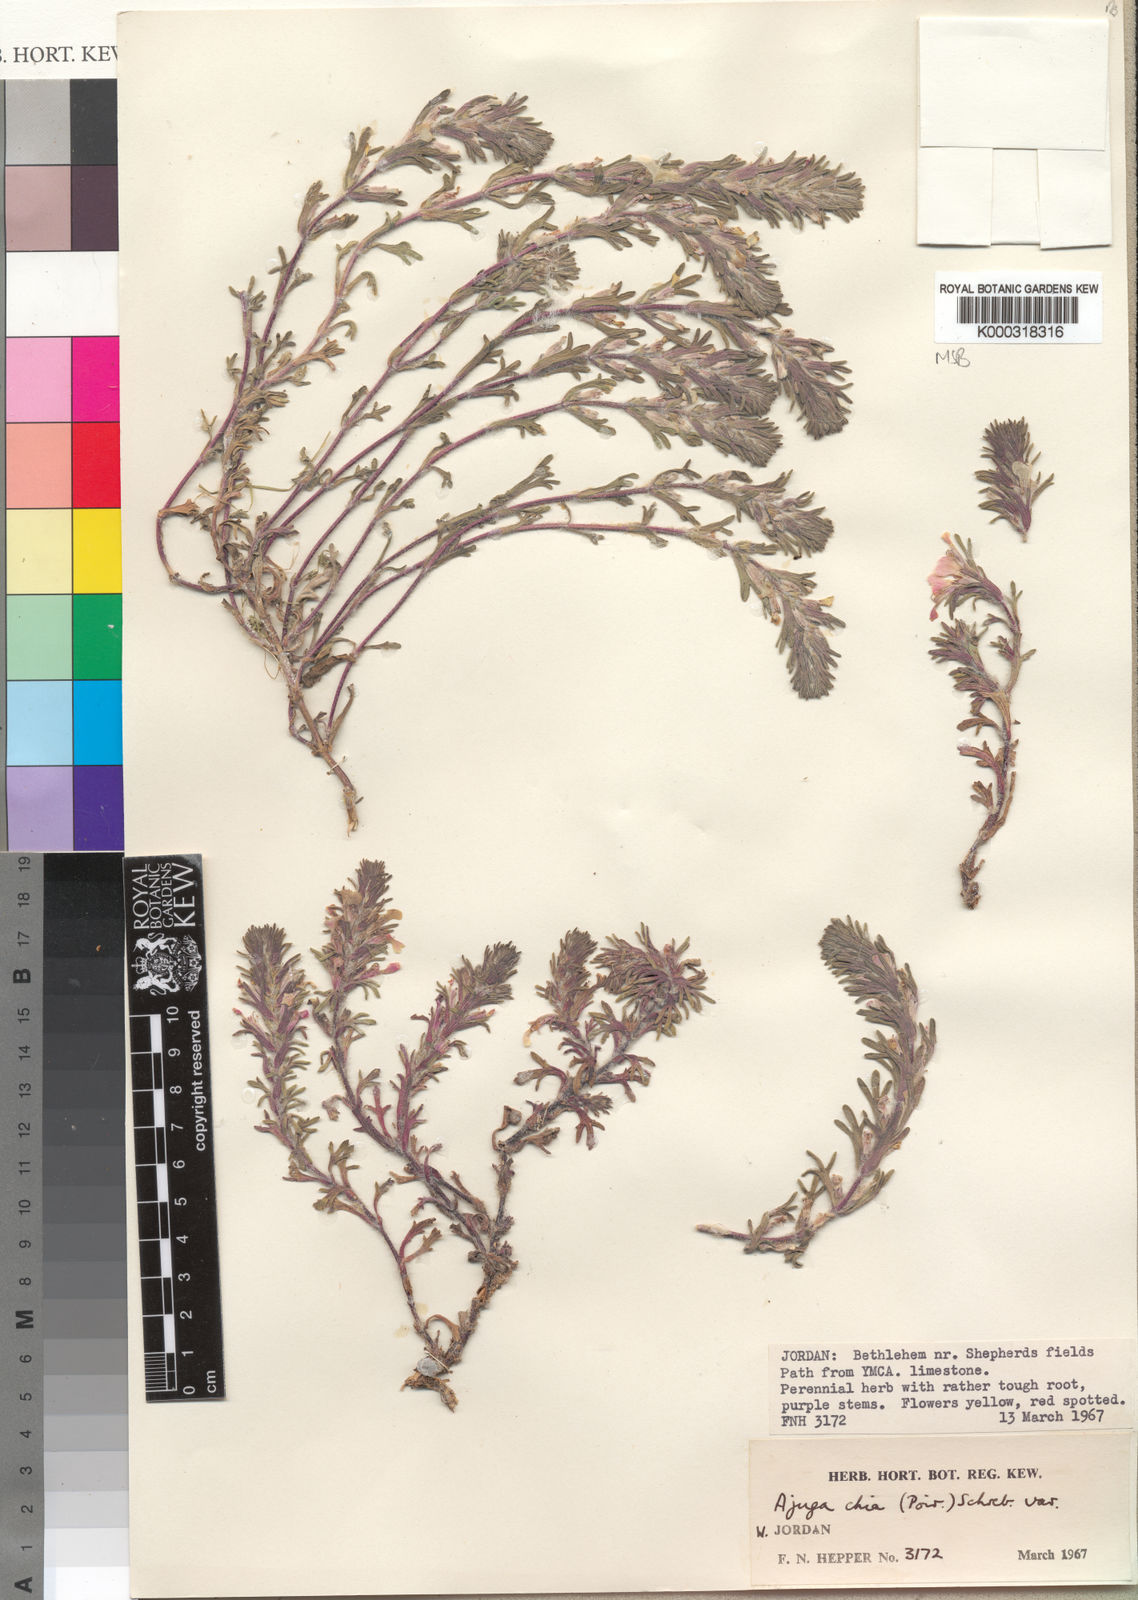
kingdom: Plantae
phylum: Tracheophyta
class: Magnoliopsida
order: Lamiales
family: Lamiaceae
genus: Ajuga
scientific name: Ajuga chamaepitys
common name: Ground-pine
